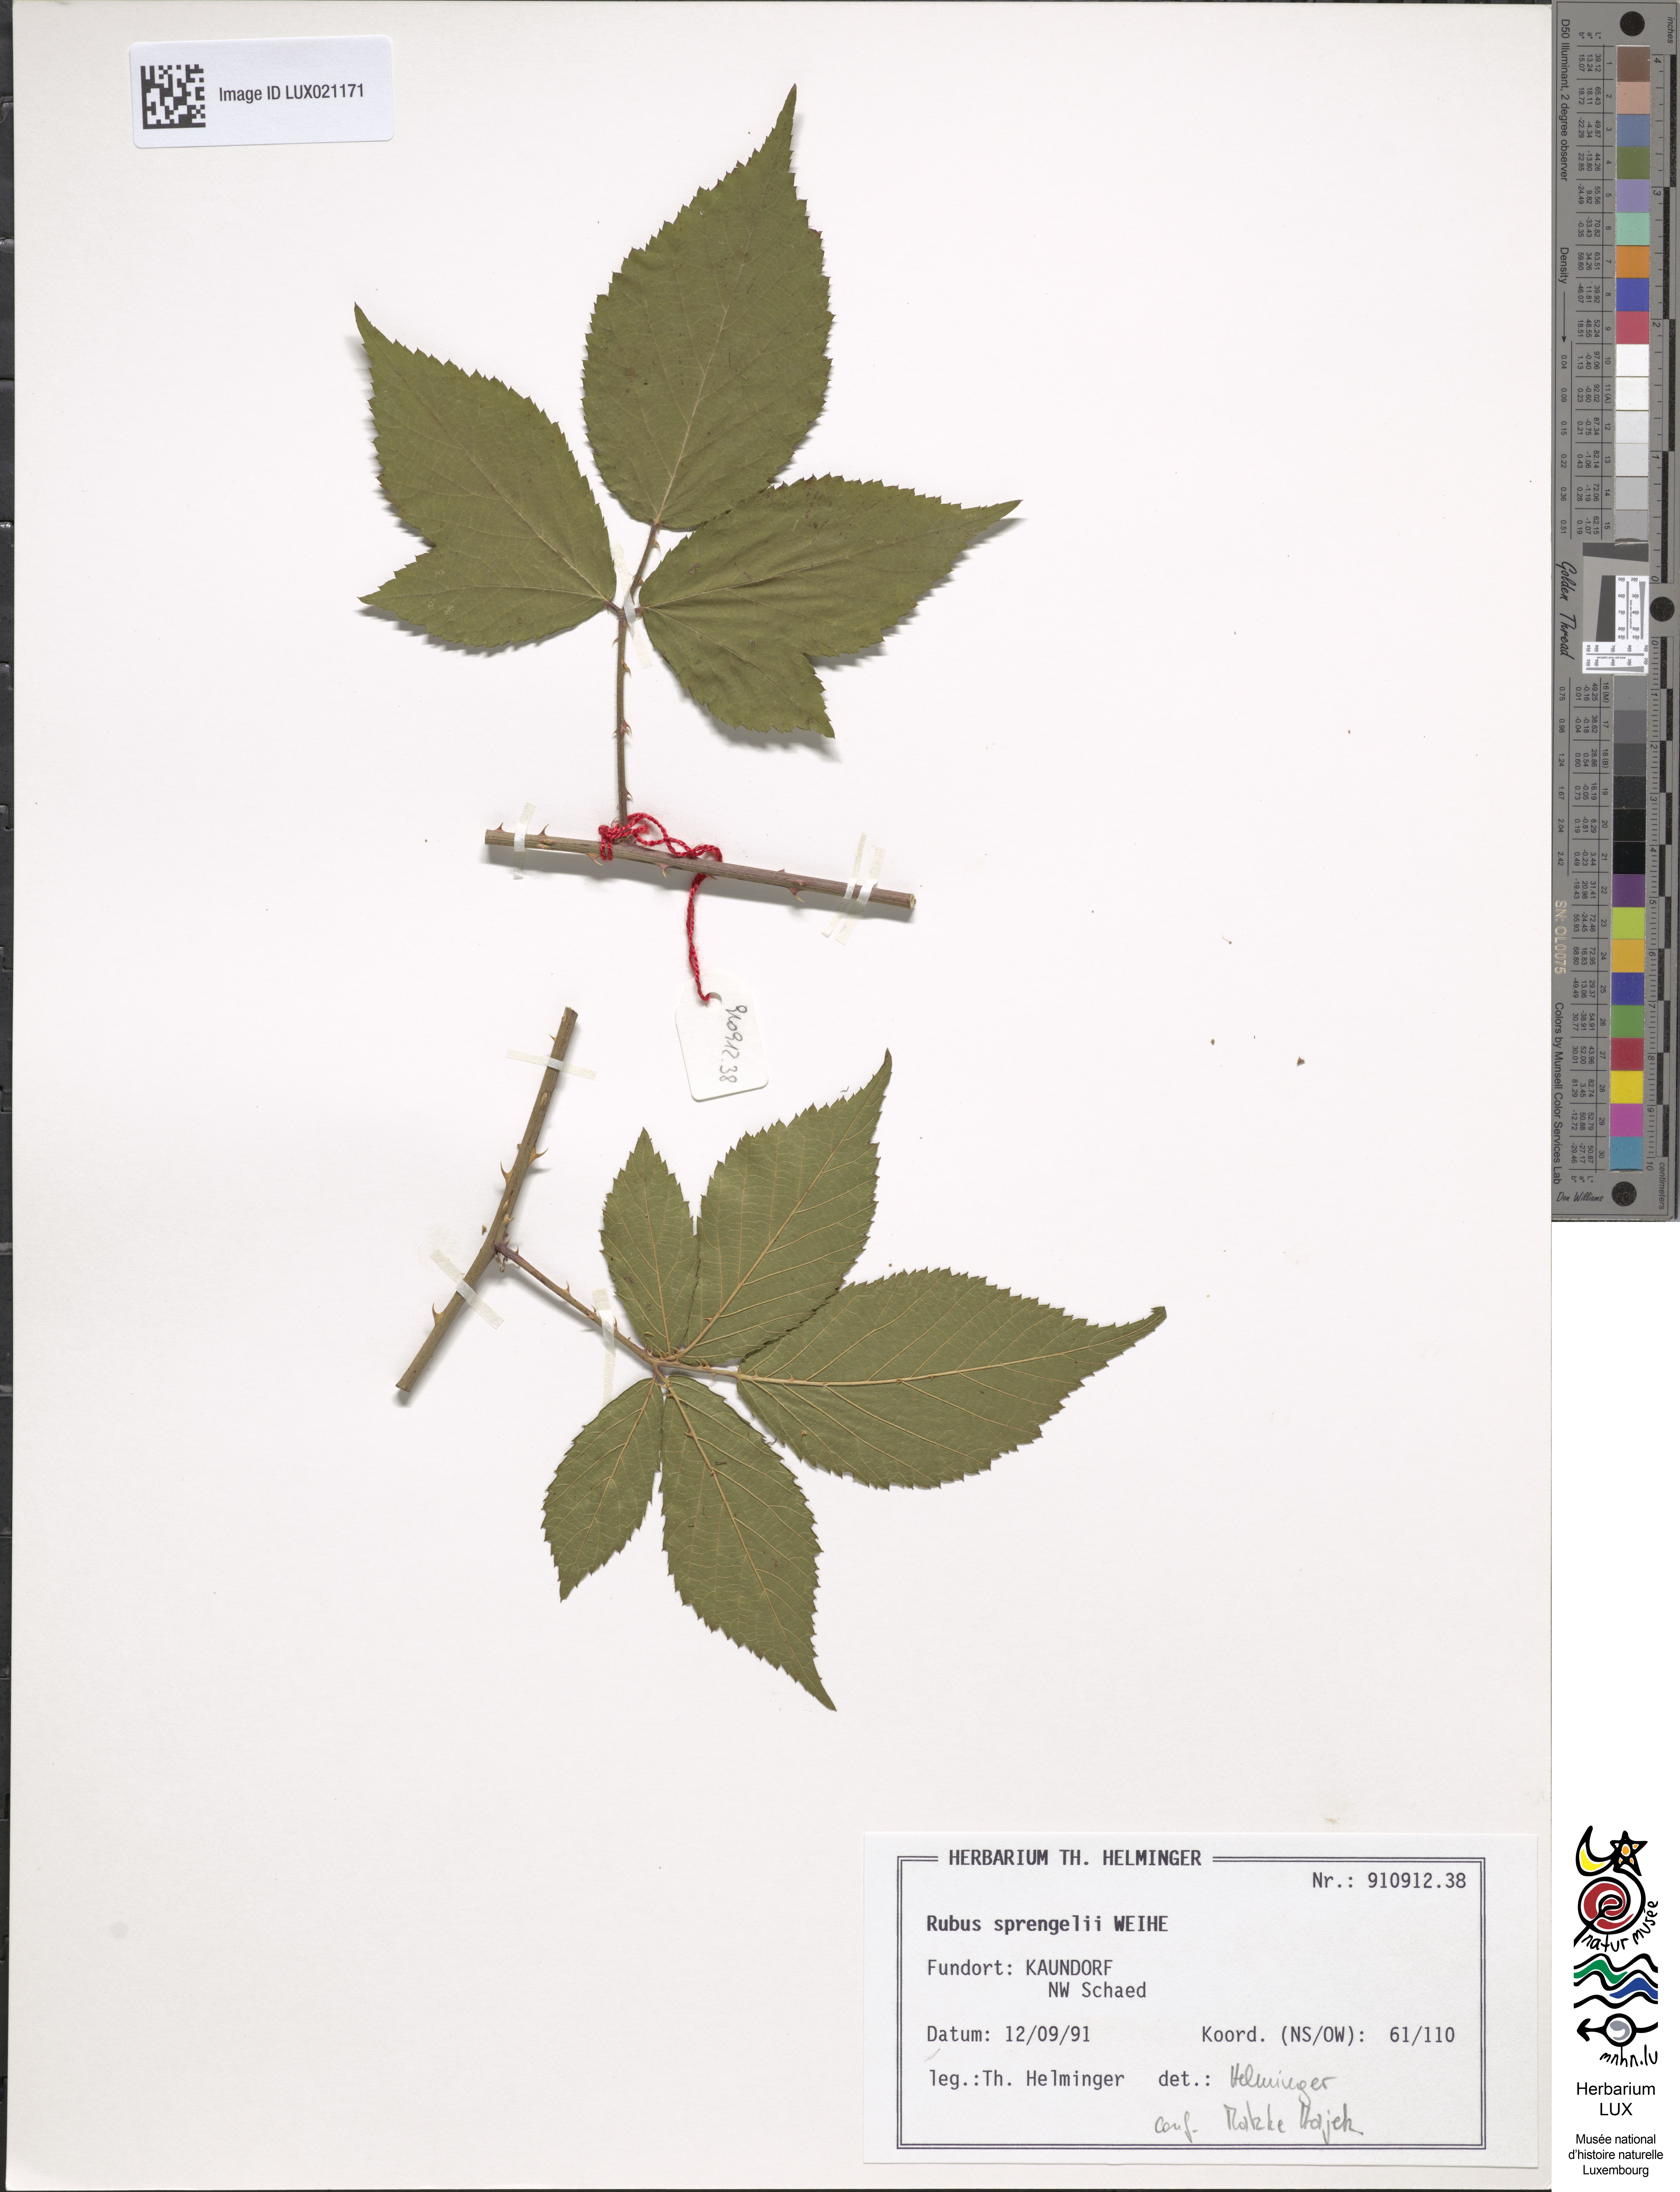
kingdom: Plantae
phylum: Tracheophyta
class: Magnoliopsida
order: Rosales
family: Rosaceae
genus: Rubus
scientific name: Rubus sprengelii
